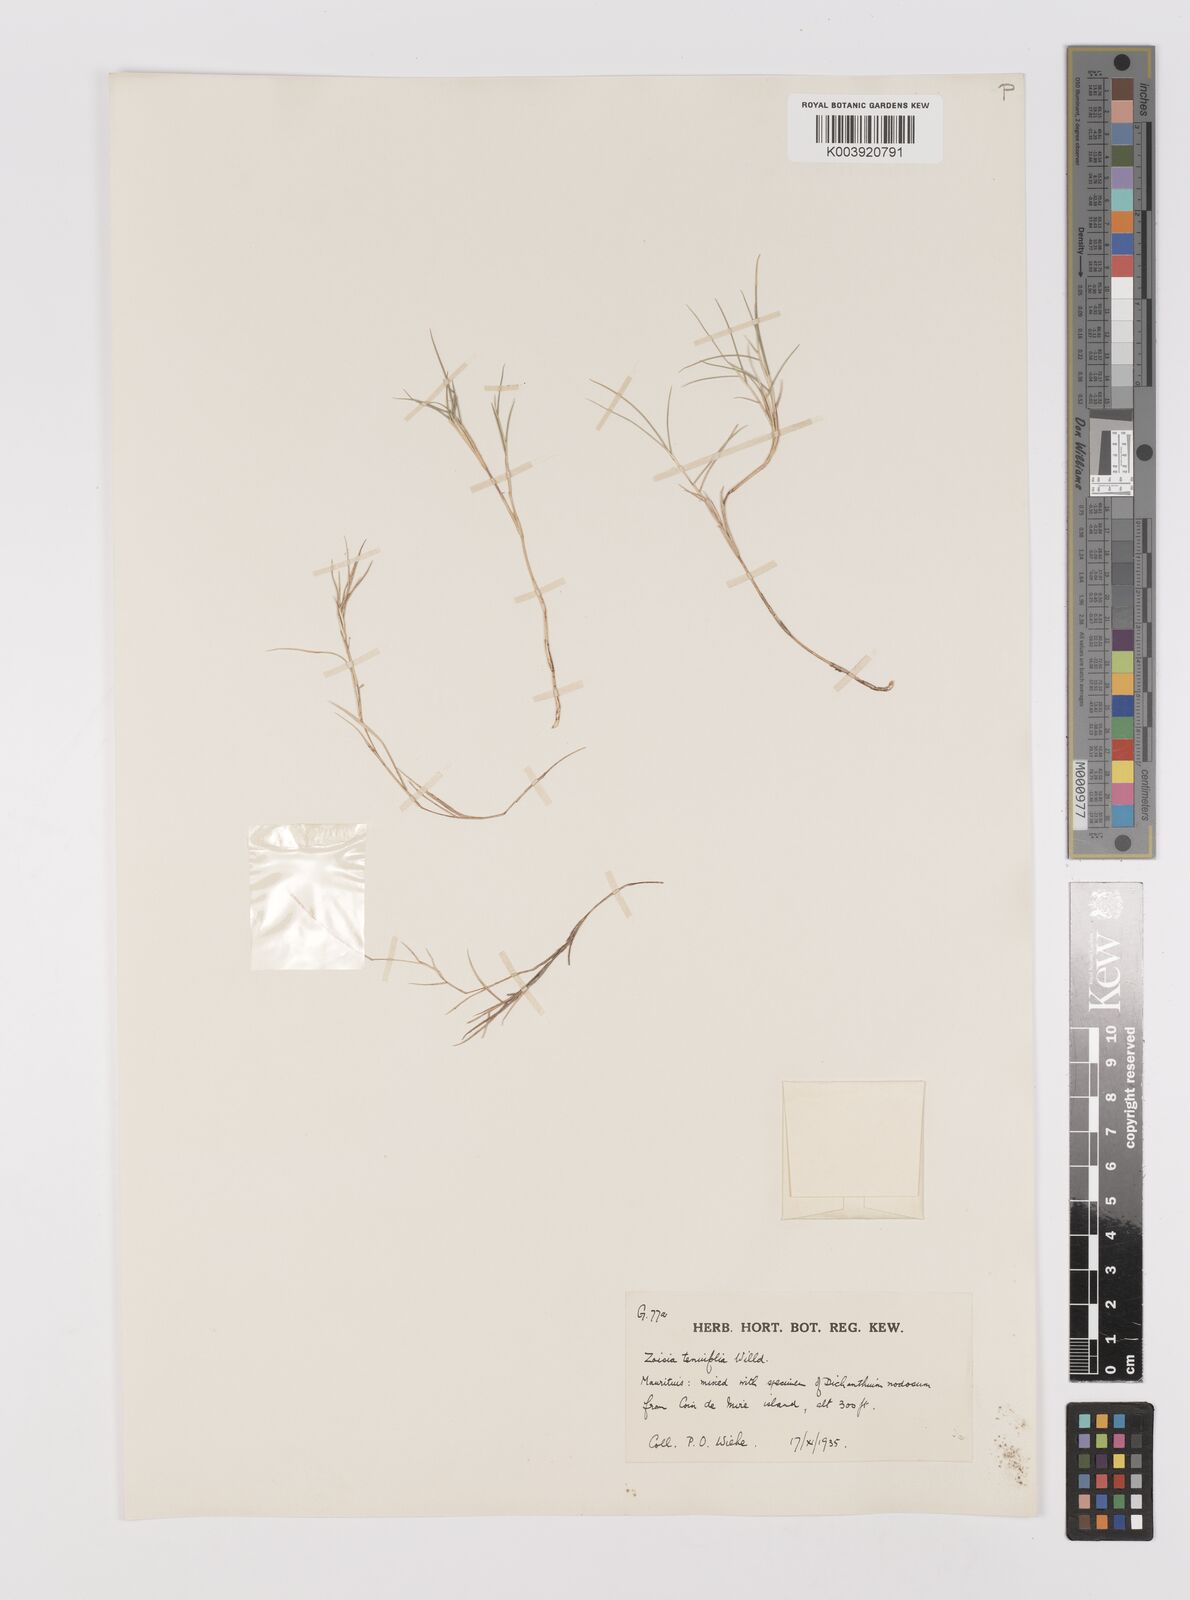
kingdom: Plantae
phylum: Tracheophyta
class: Liliopsida
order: Poales
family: Poaceae
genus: Zoysia
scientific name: Zoysia matrella
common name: Manila grass
